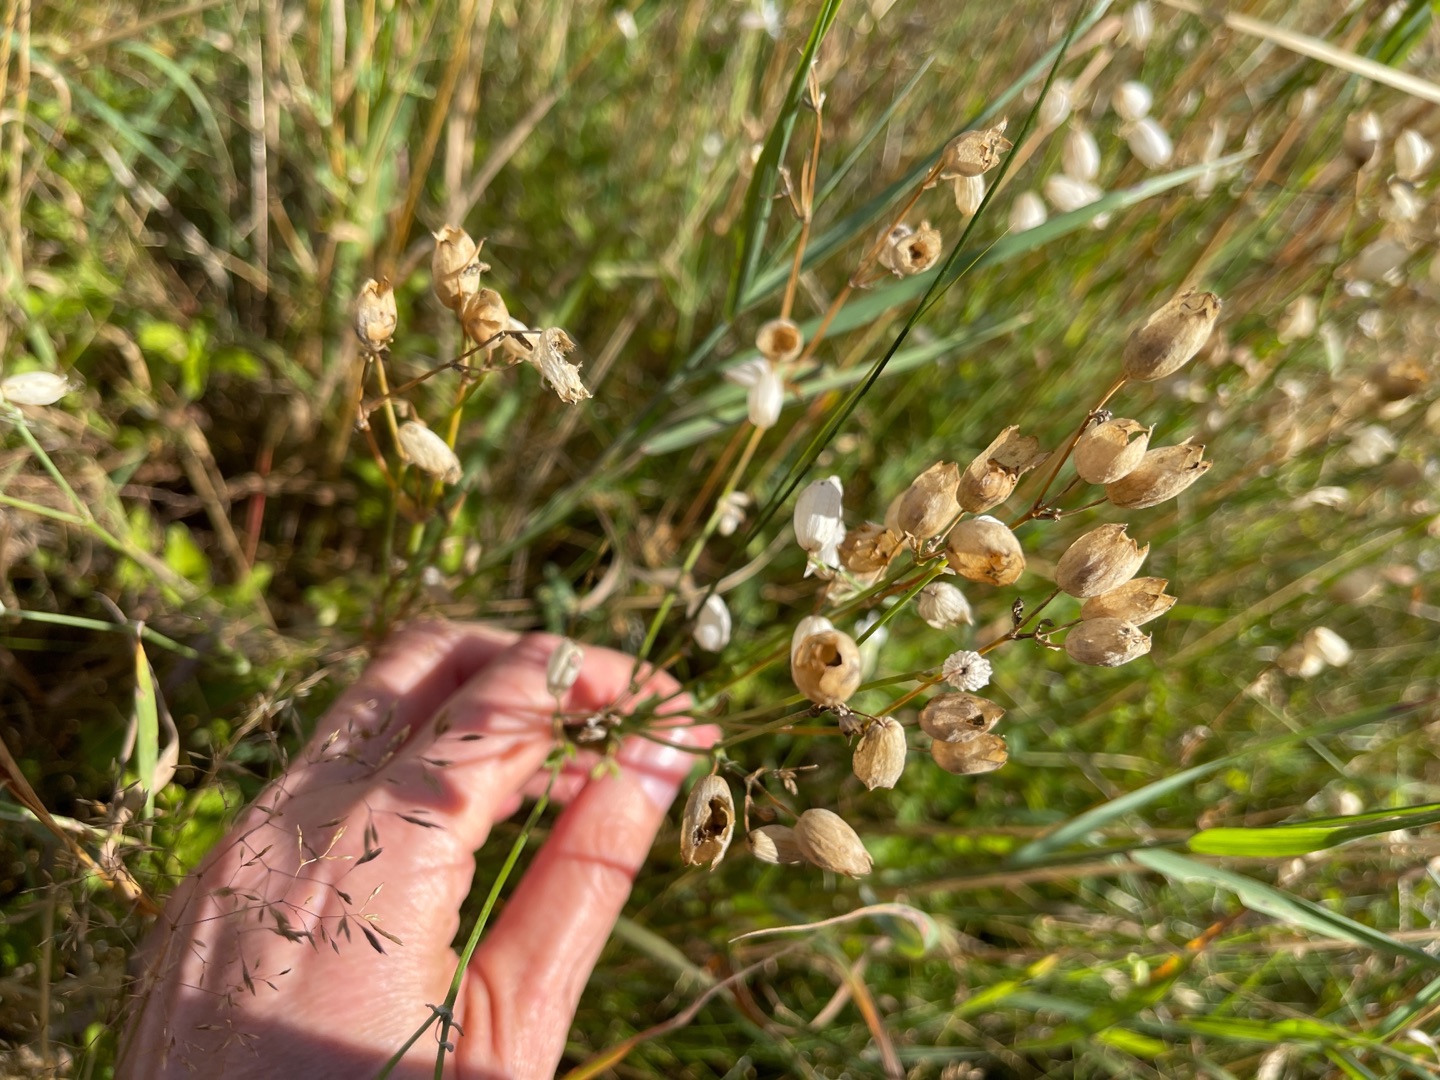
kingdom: Plantae
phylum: Tracheophyta
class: Magnoliopsida
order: Caryophyllales
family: Caryophyllaceae
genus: Silene
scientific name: Silene vulgaris
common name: Blæresmælde
